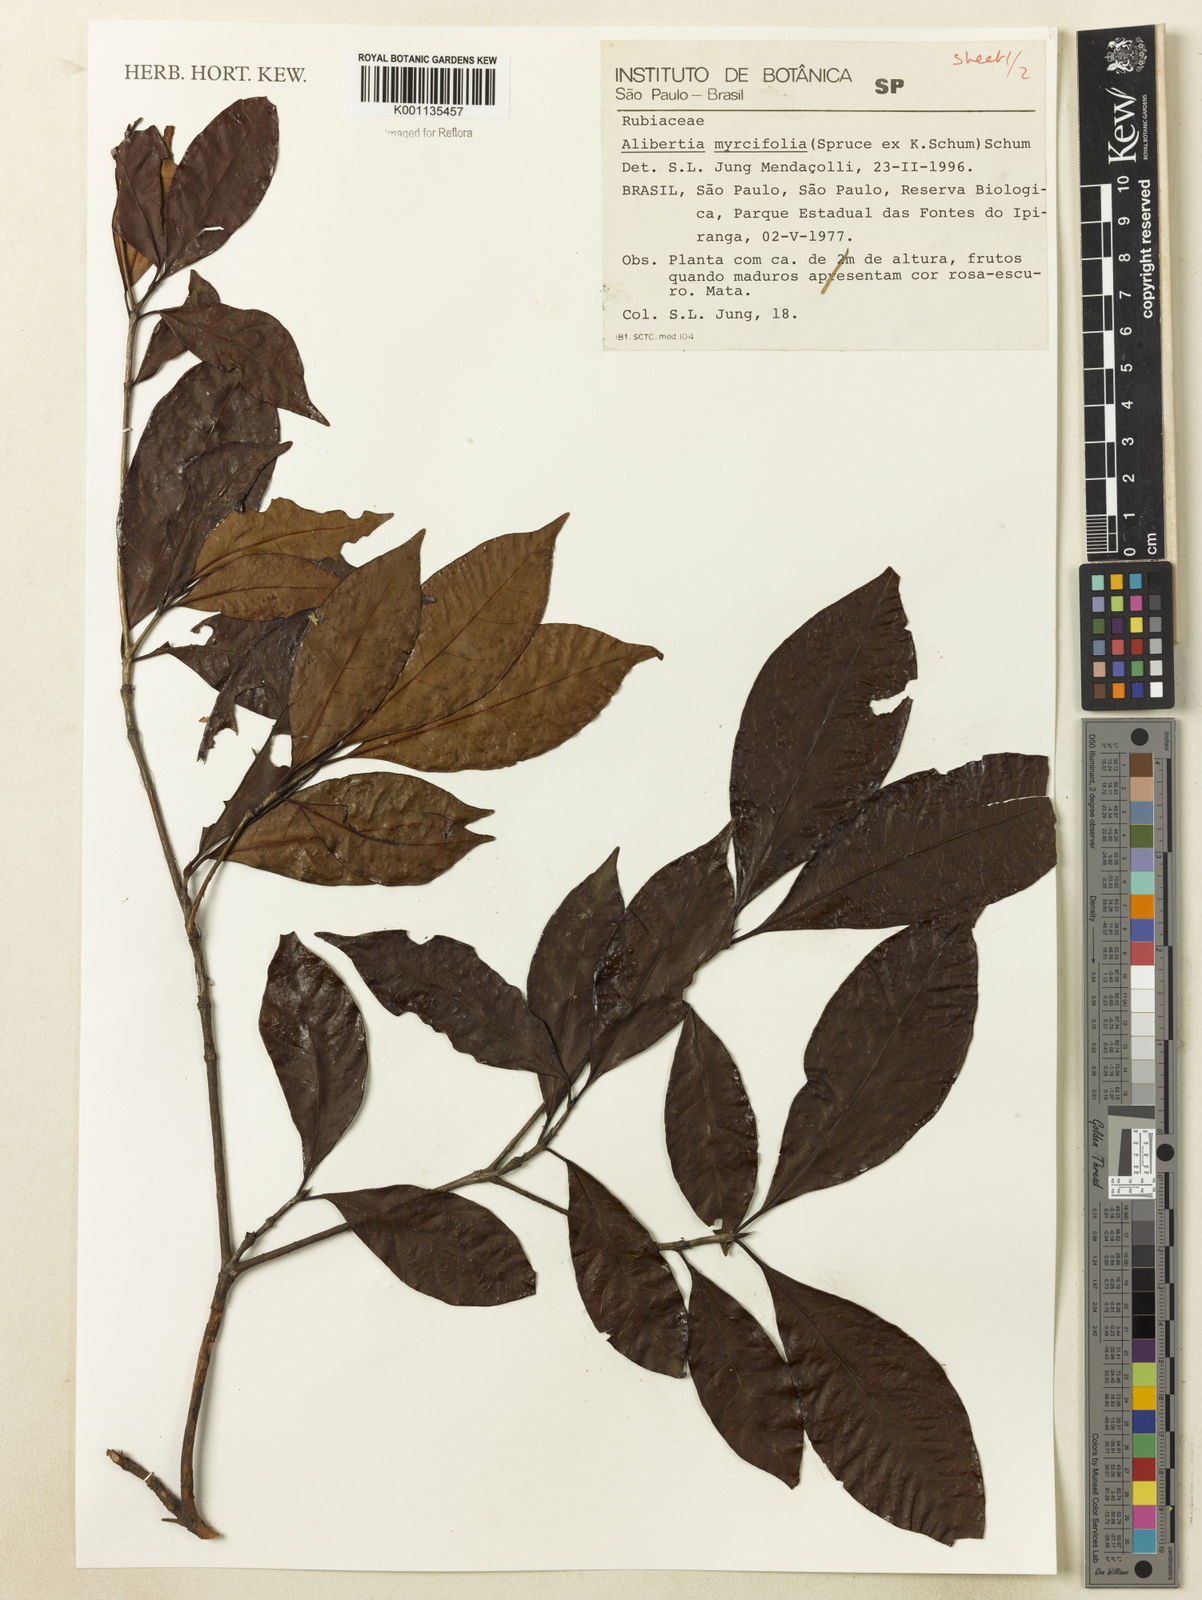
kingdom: Plantae
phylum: Tracheophyta
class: Magnoliopsida
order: Gentianales
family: Rubiaceae
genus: Cordiera
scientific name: Cordiera myrciifolia
